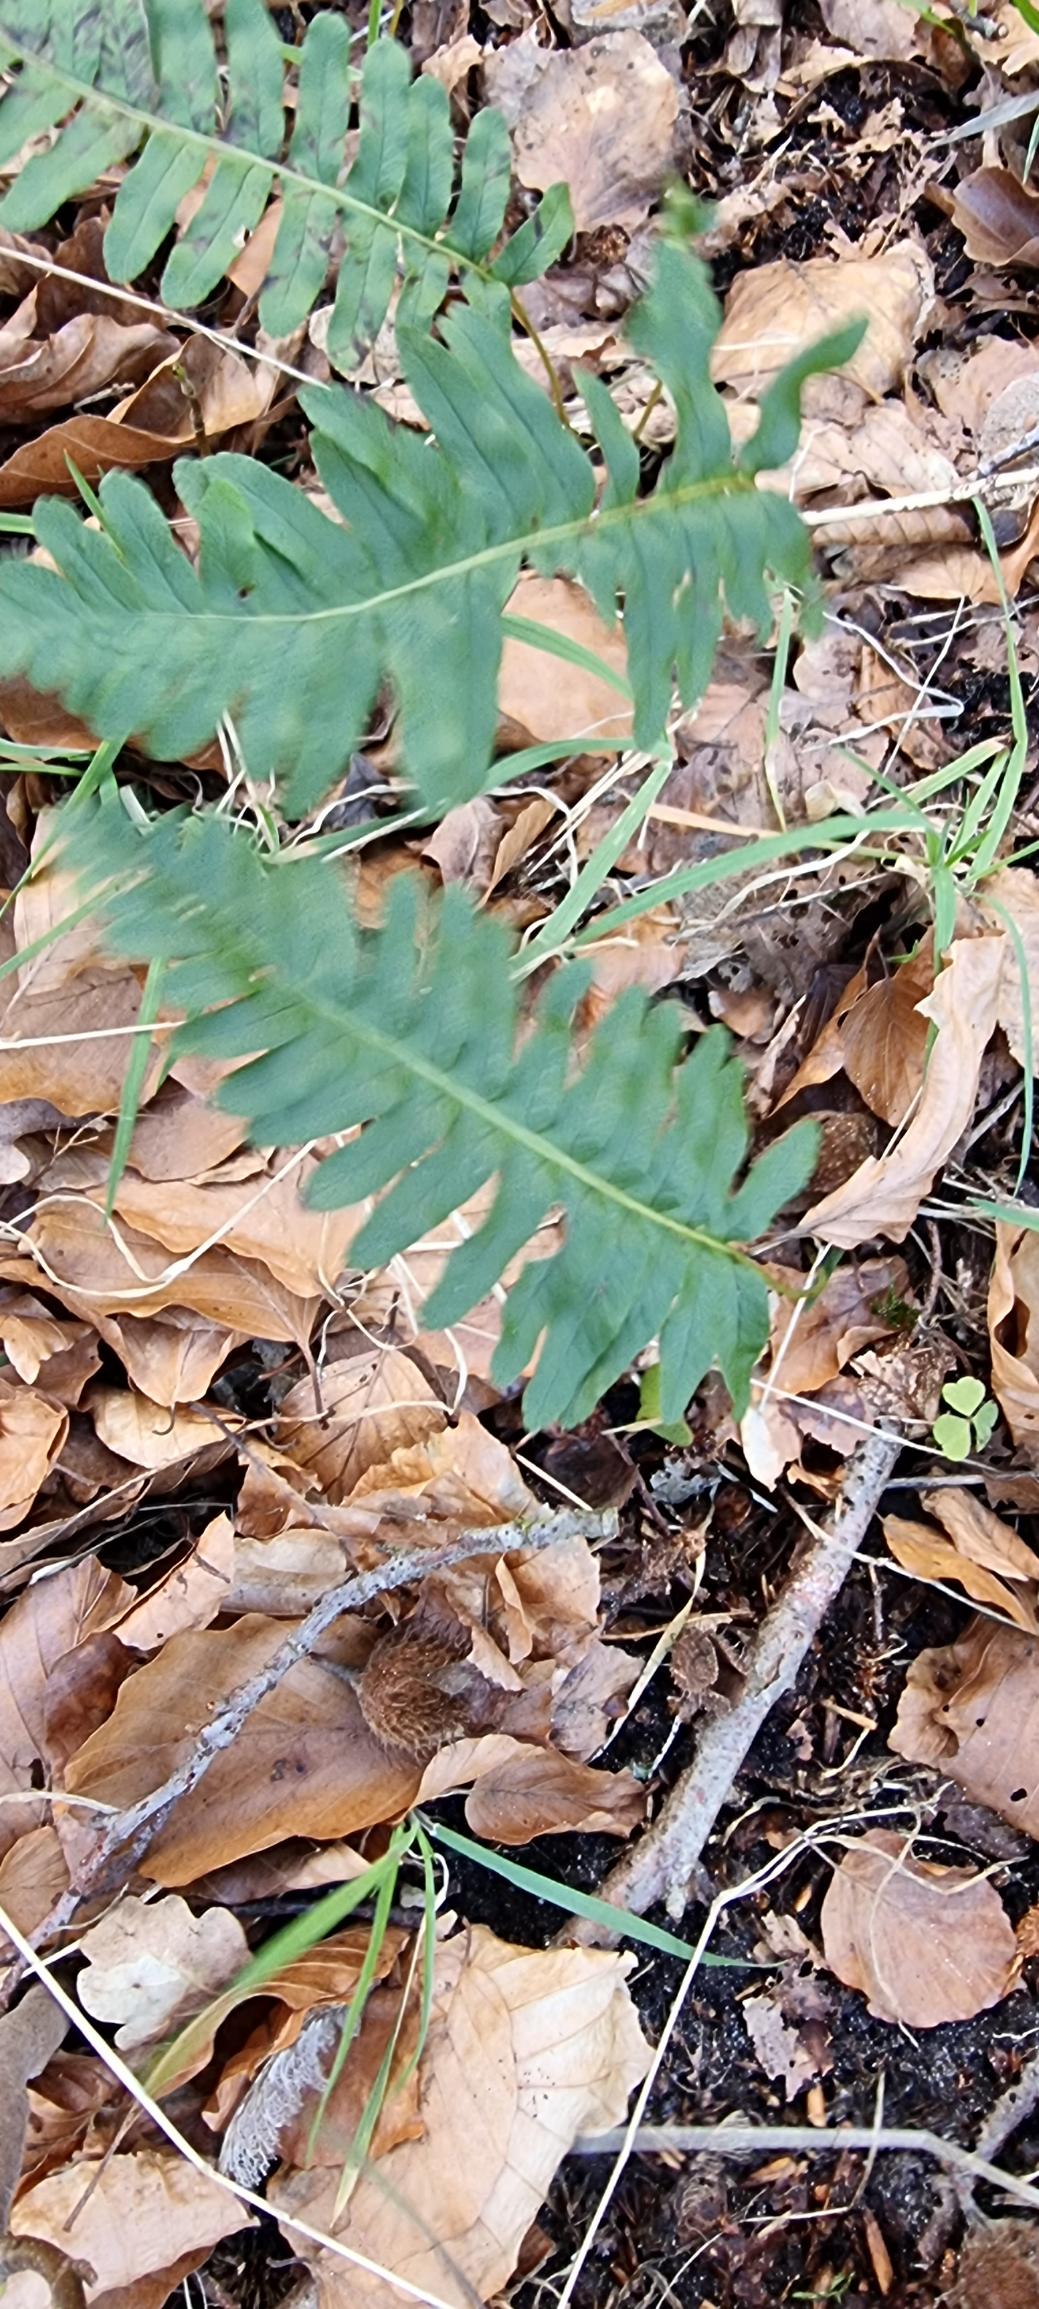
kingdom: Plantae
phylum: Tracheophyta
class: Polypodiopsida
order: Polypodiales
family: Polypodiaceae
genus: Polypodium
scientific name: Polypodium vulgare
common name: Almindelig engelsød
